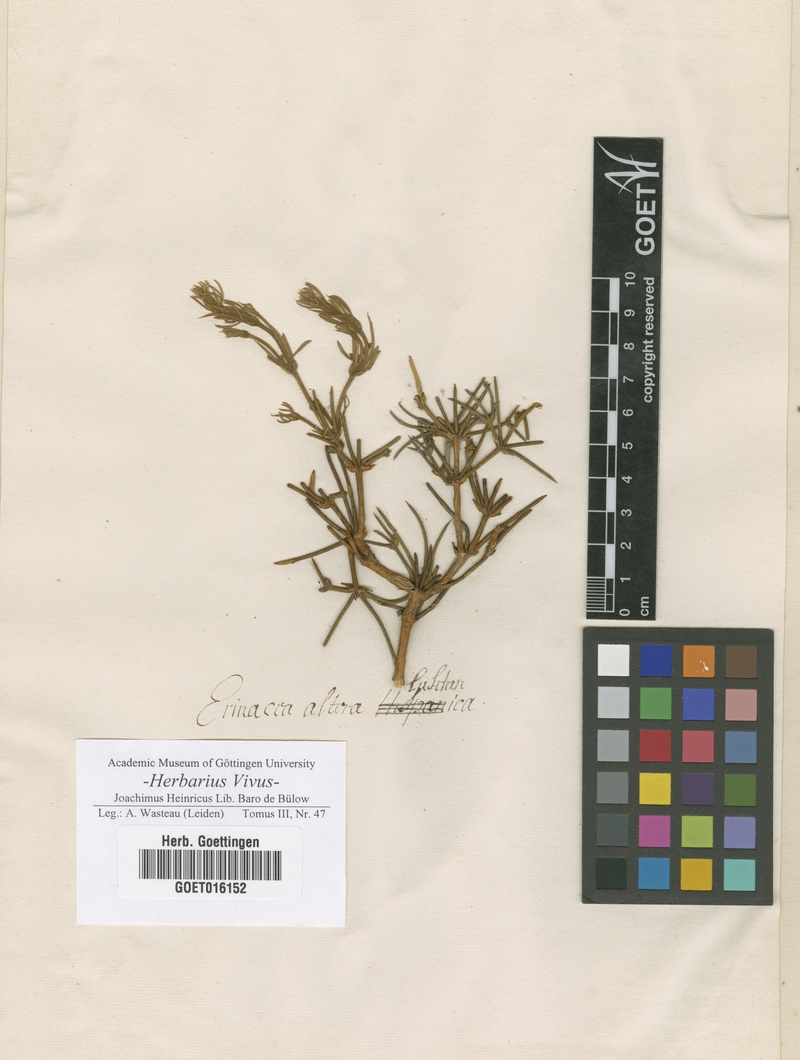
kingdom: Plantae
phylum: Tracheophyta
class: Magnoliopsida
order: Fabales
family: Fabaceae
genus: Erinacea
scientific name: Erinacea
